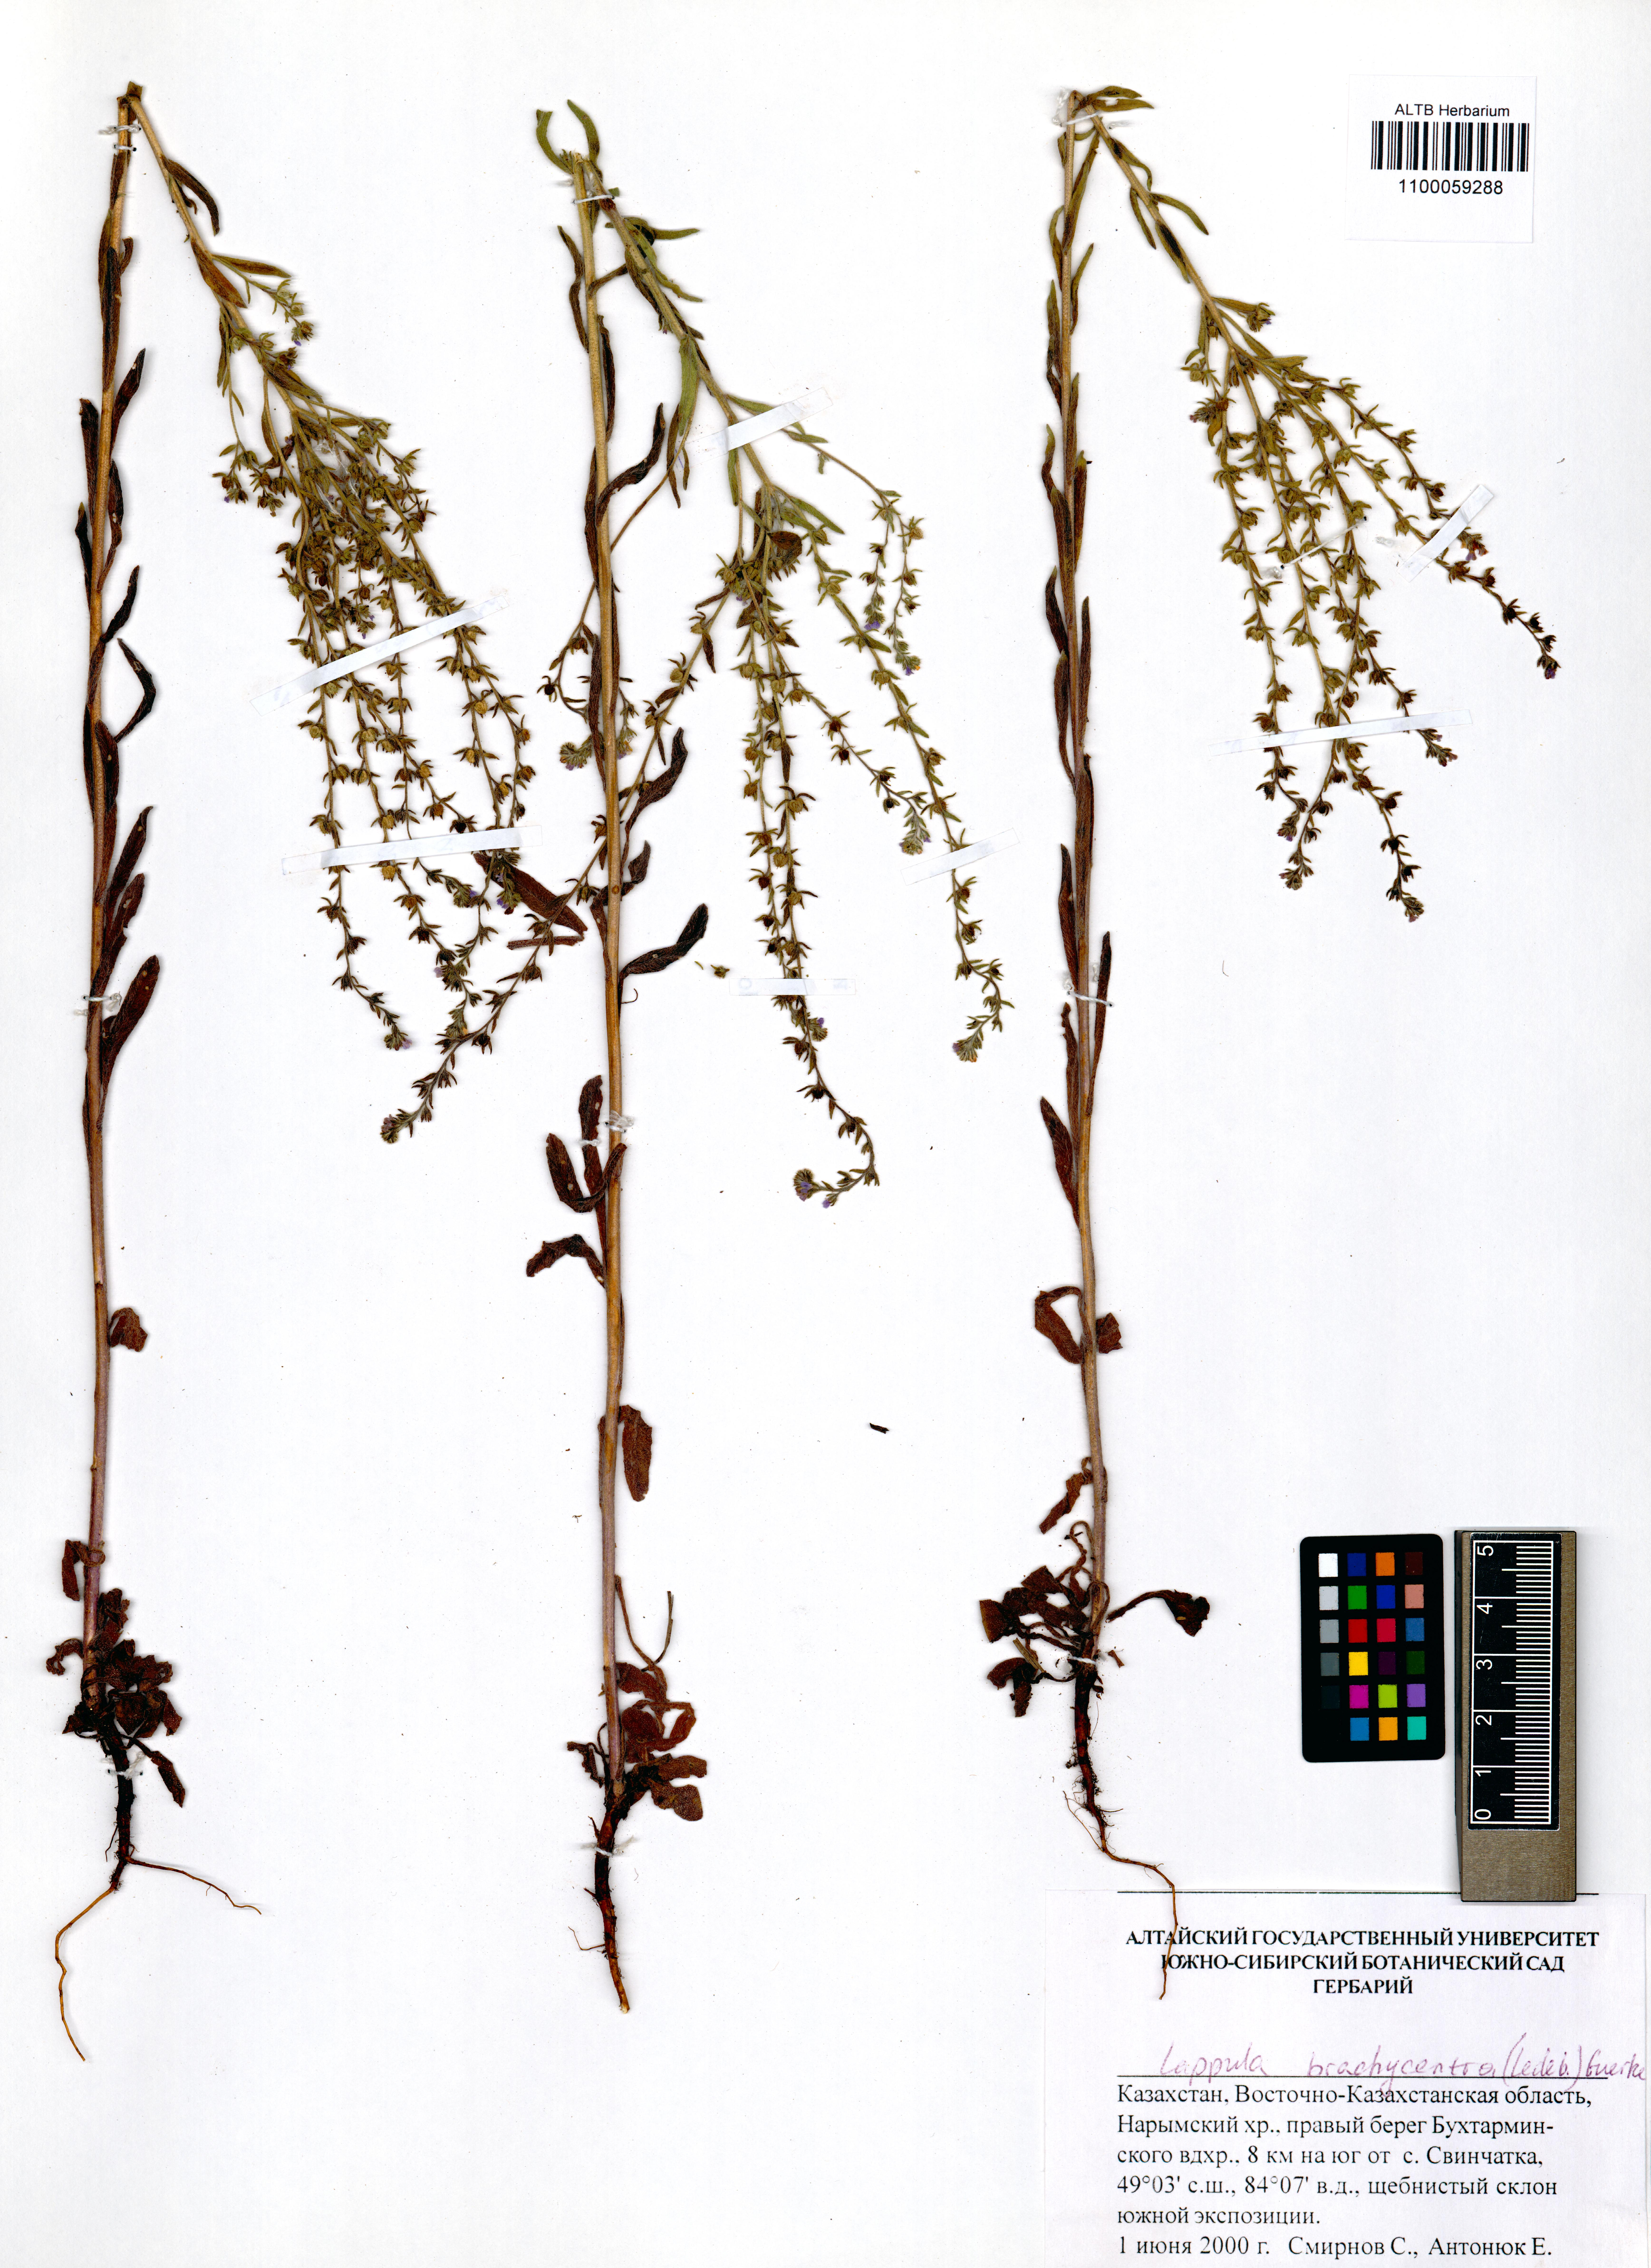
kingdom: Plantae
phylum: Tracheophyta
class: Magnoliopsida
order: Boraginales
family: Boraginaceae
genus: Lappula
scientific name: Lappula brachycentra
